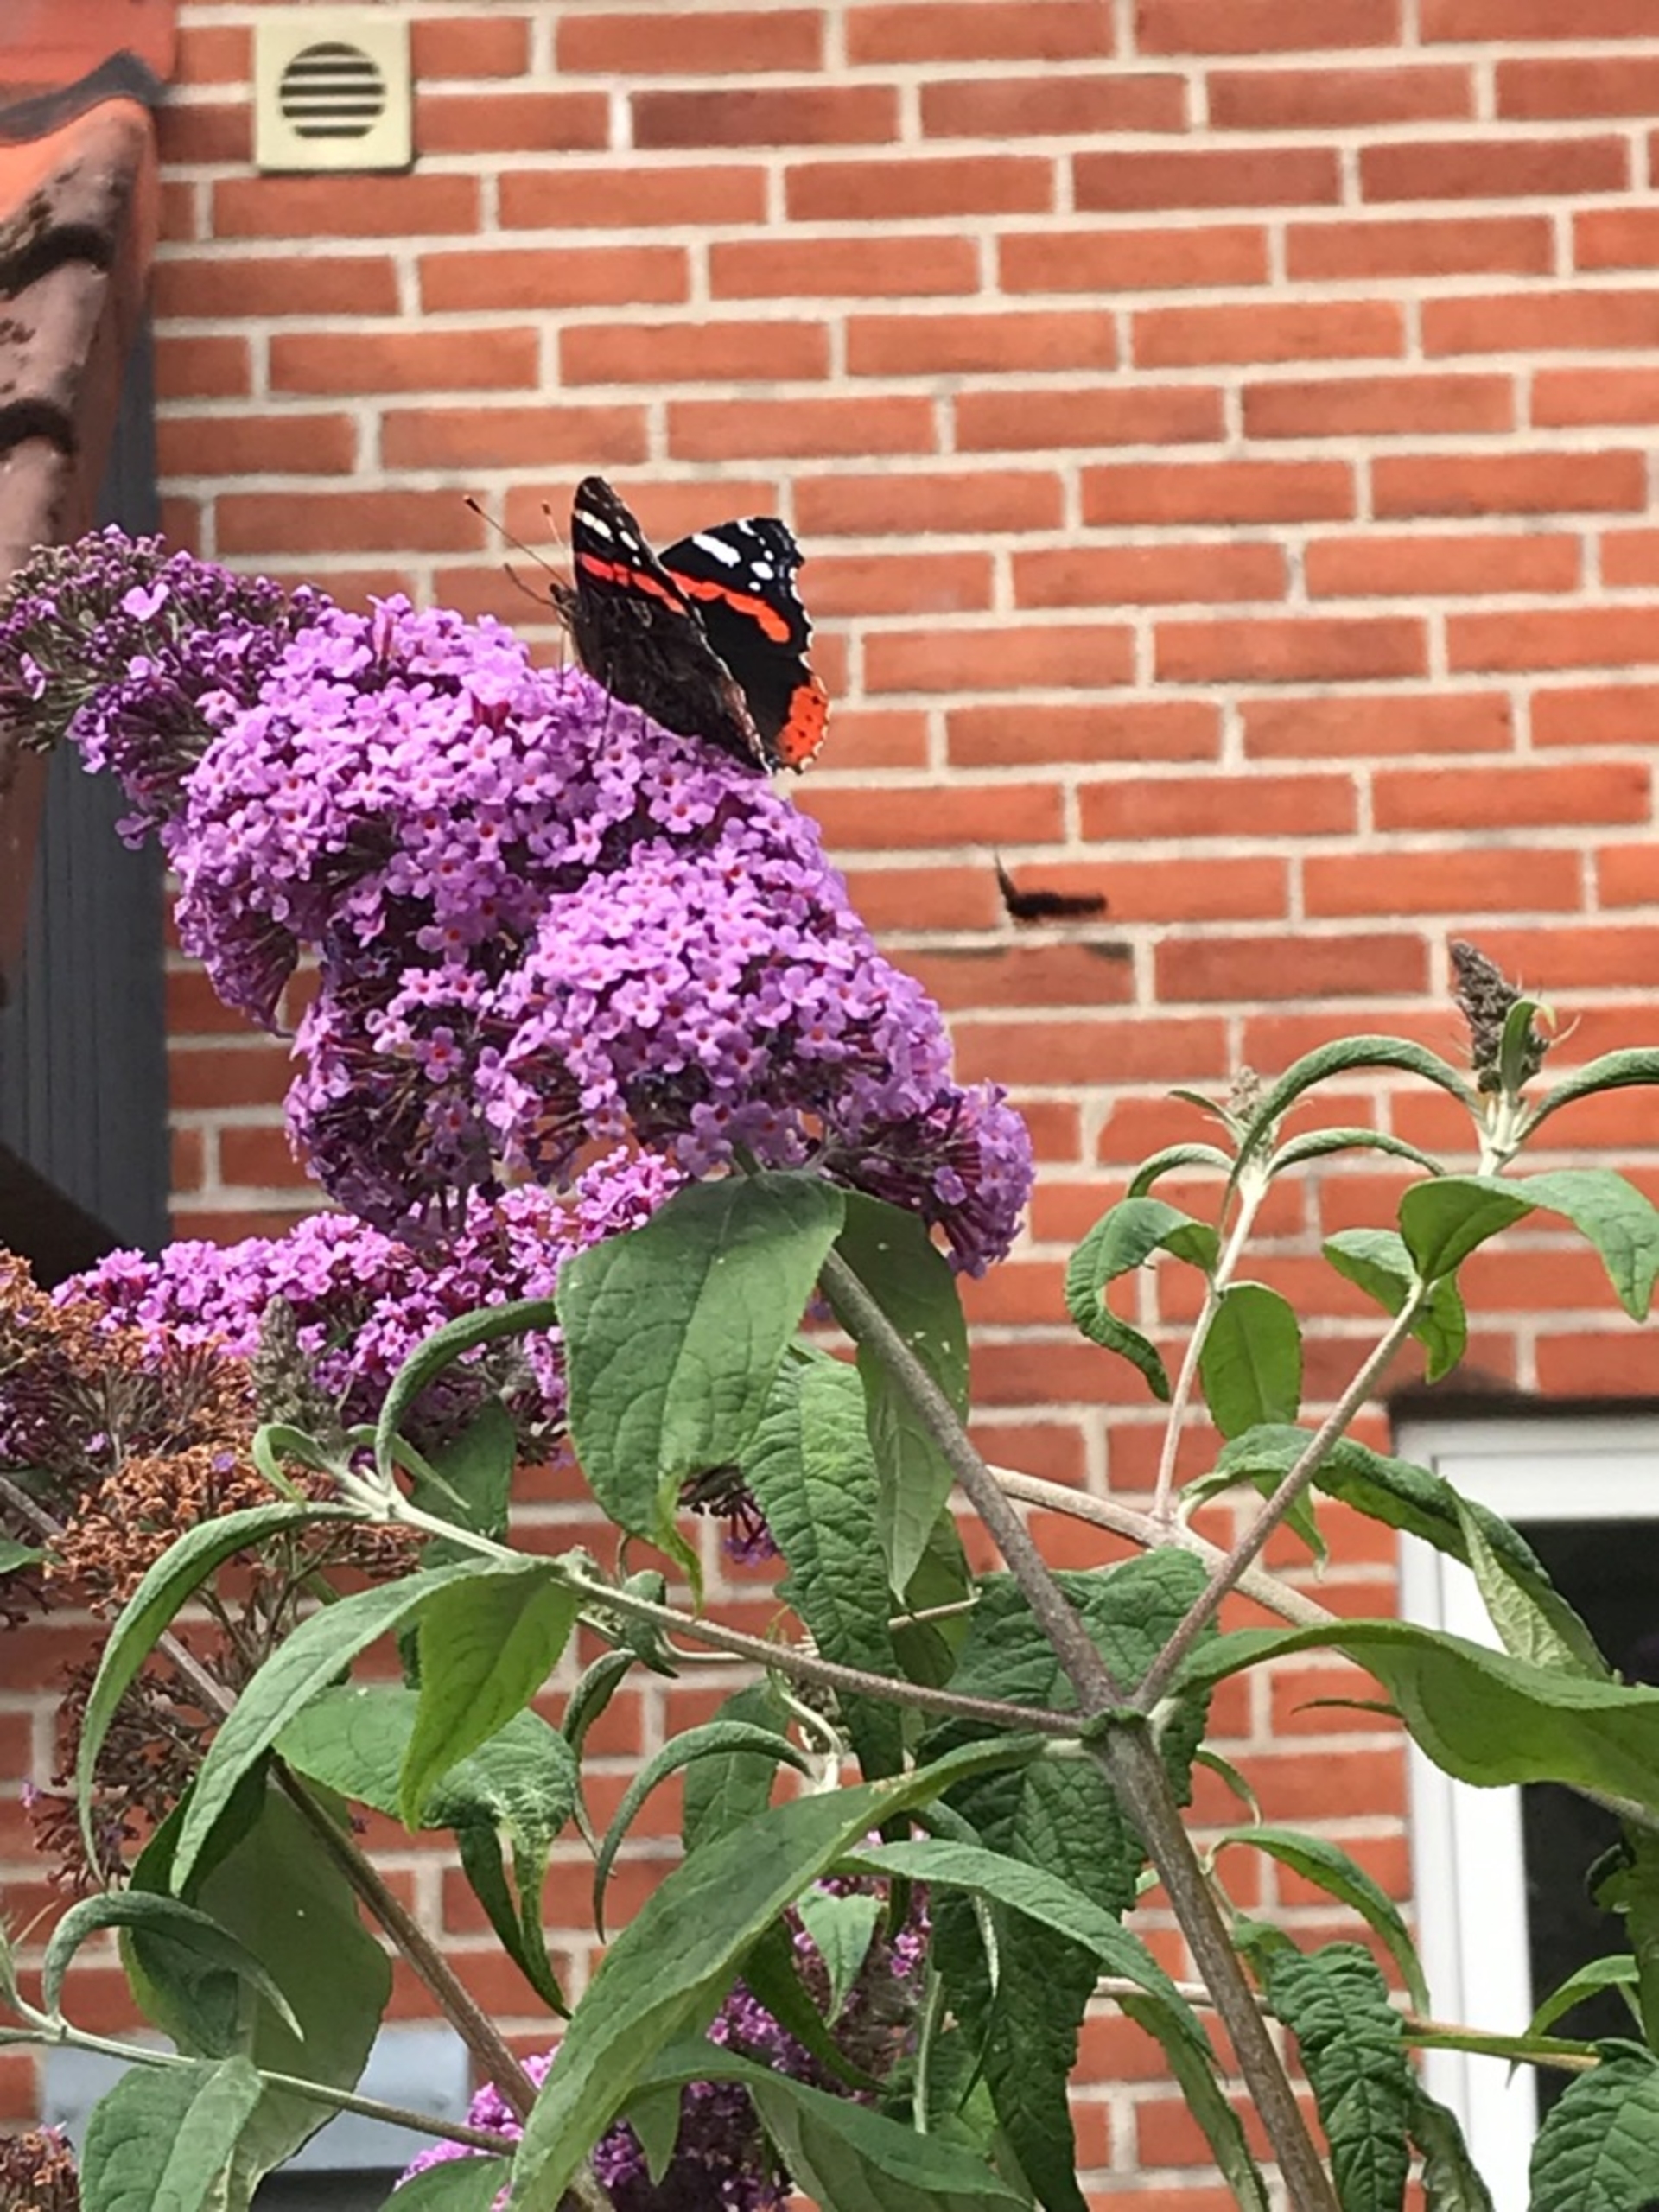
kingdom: Animalia
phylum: Arthropoda
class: Insecta
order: Lepidoptera
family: Nymphalidae
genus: Vanessa
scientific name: Vanessa atalanta
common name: Admiral
